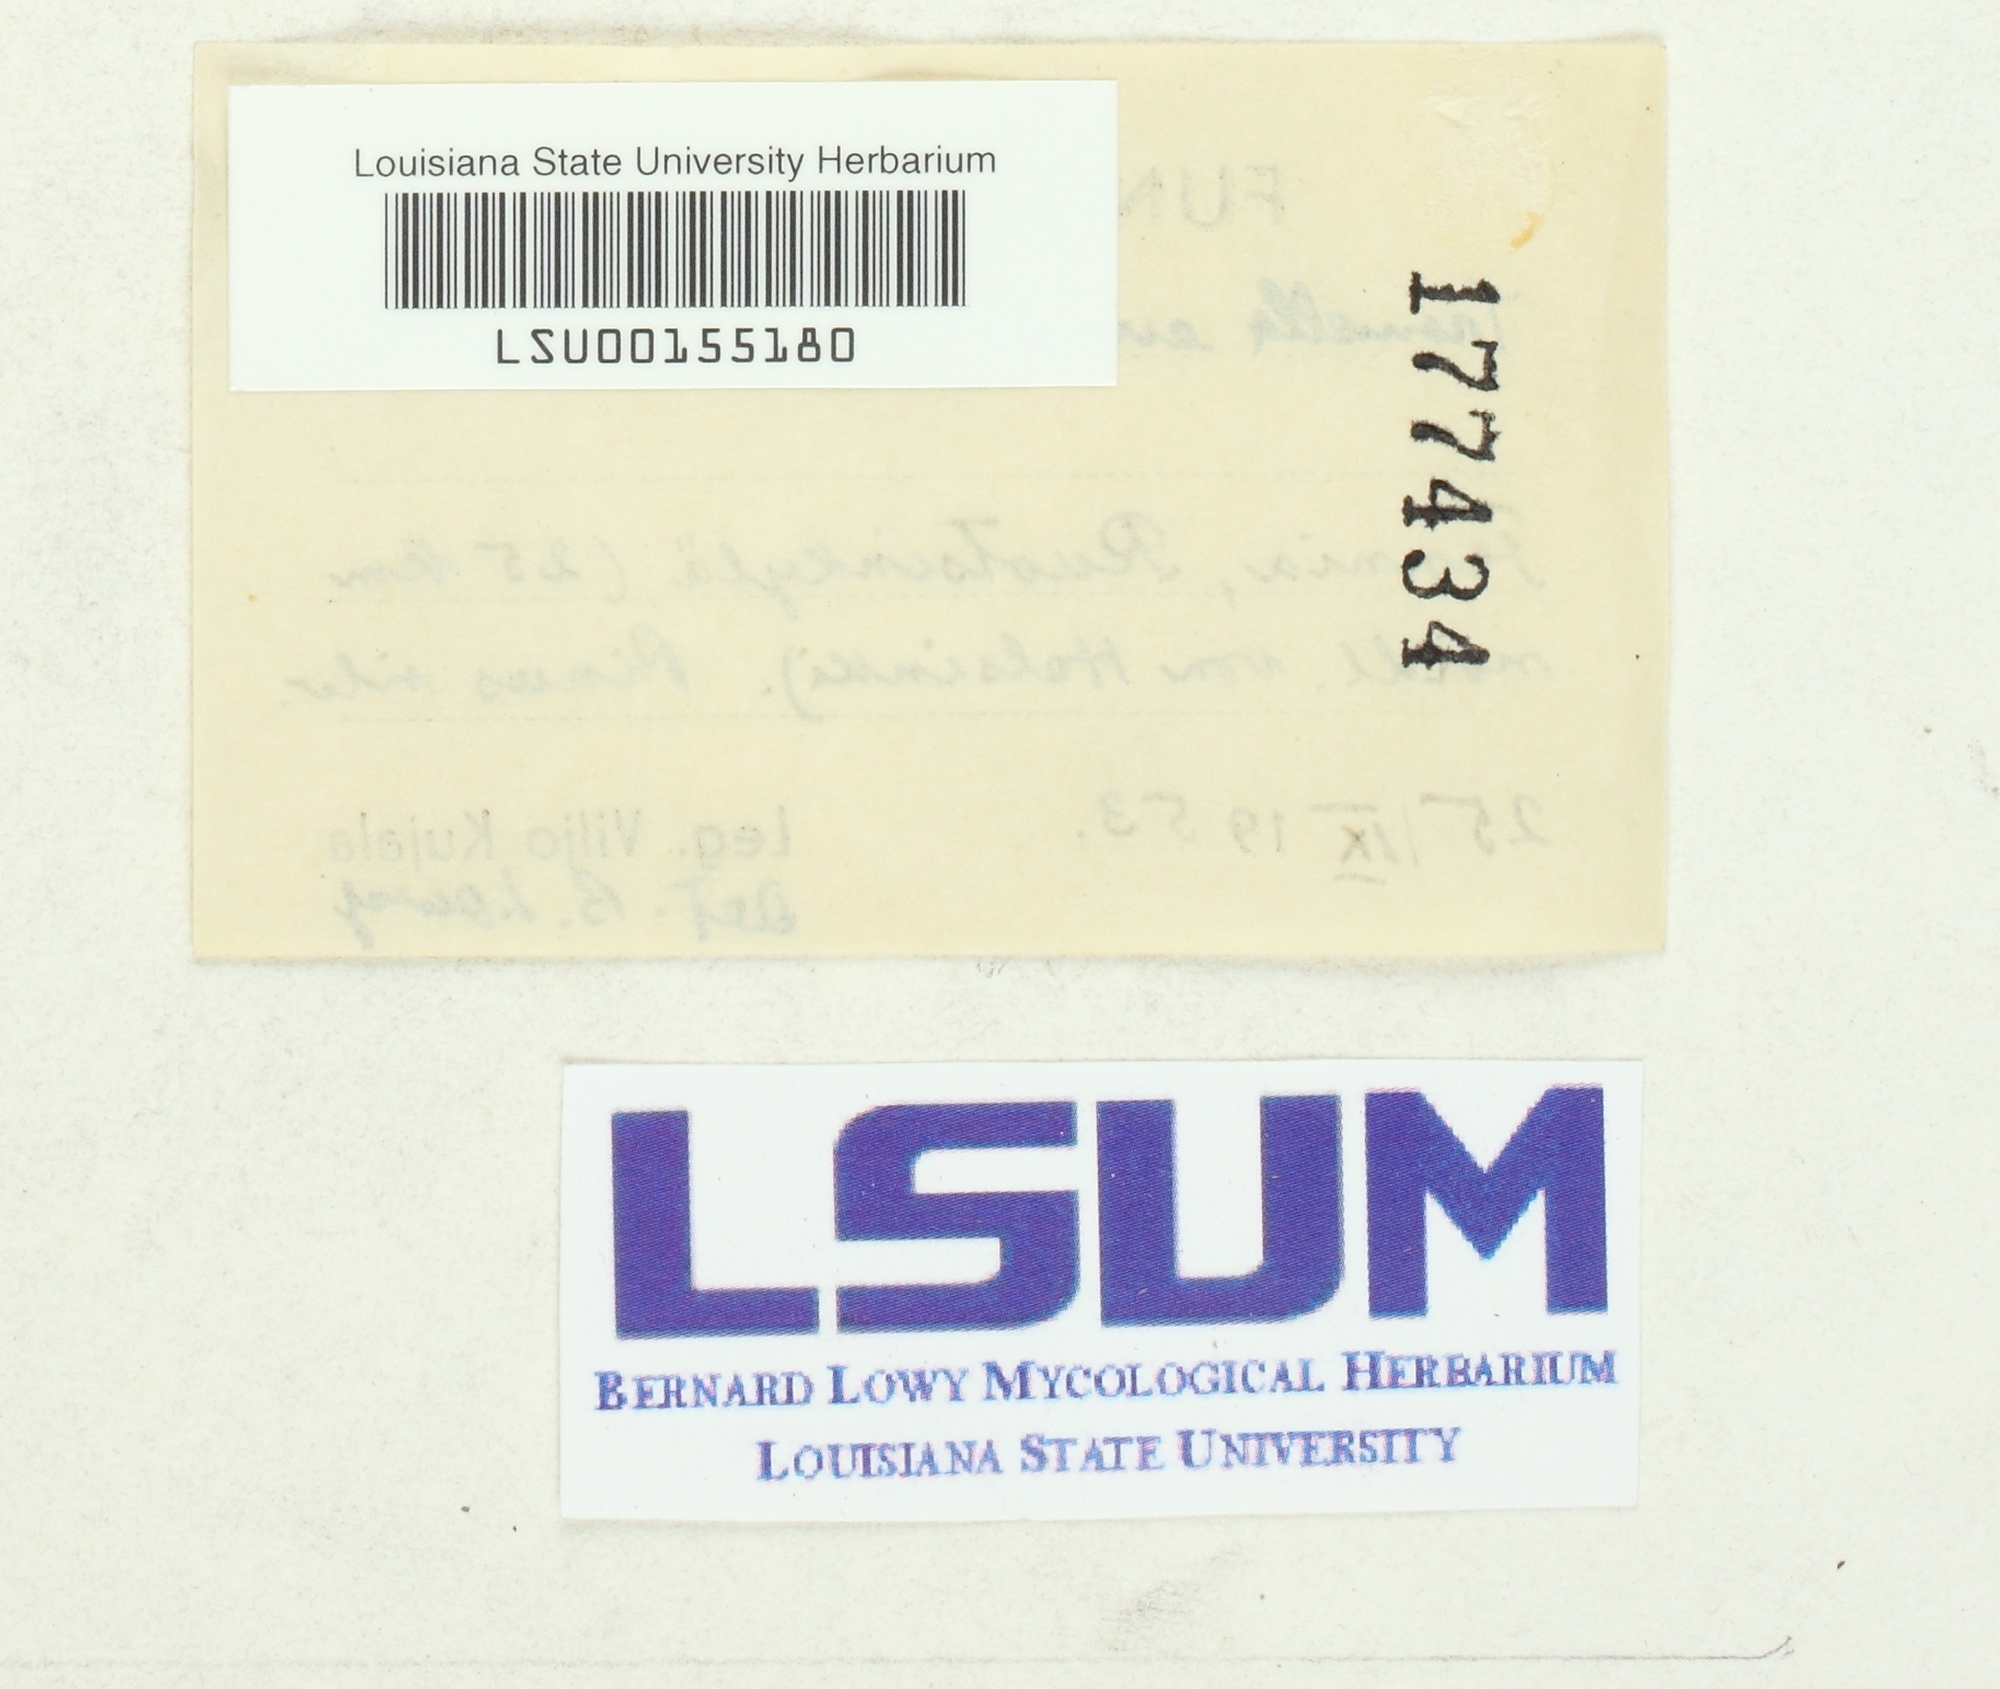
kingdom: Fungi
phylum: Basidiomycota
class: Tremellomycetes
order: Tremellales
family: Naemateliaceae
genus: Naematelia
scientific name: Naematelia encephala
